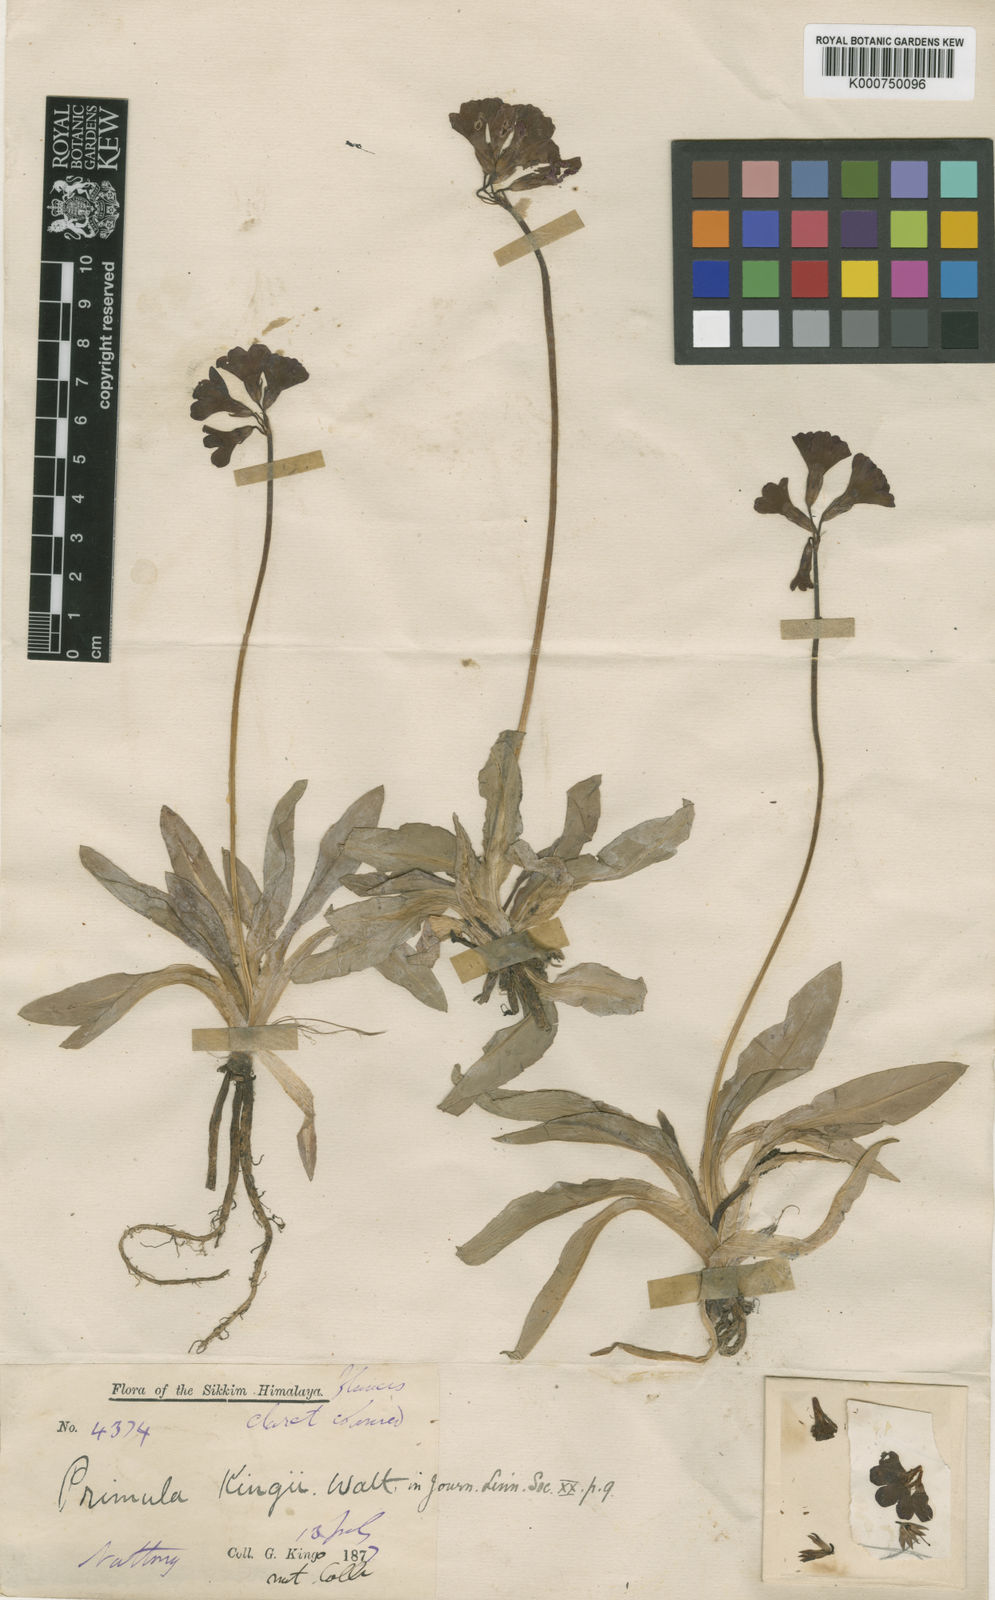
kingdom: Plantae
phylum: Tracheophyta
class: Magnoliopsida
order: Ericales
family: Primulaceae
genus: Primula
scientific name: Primula kingii
